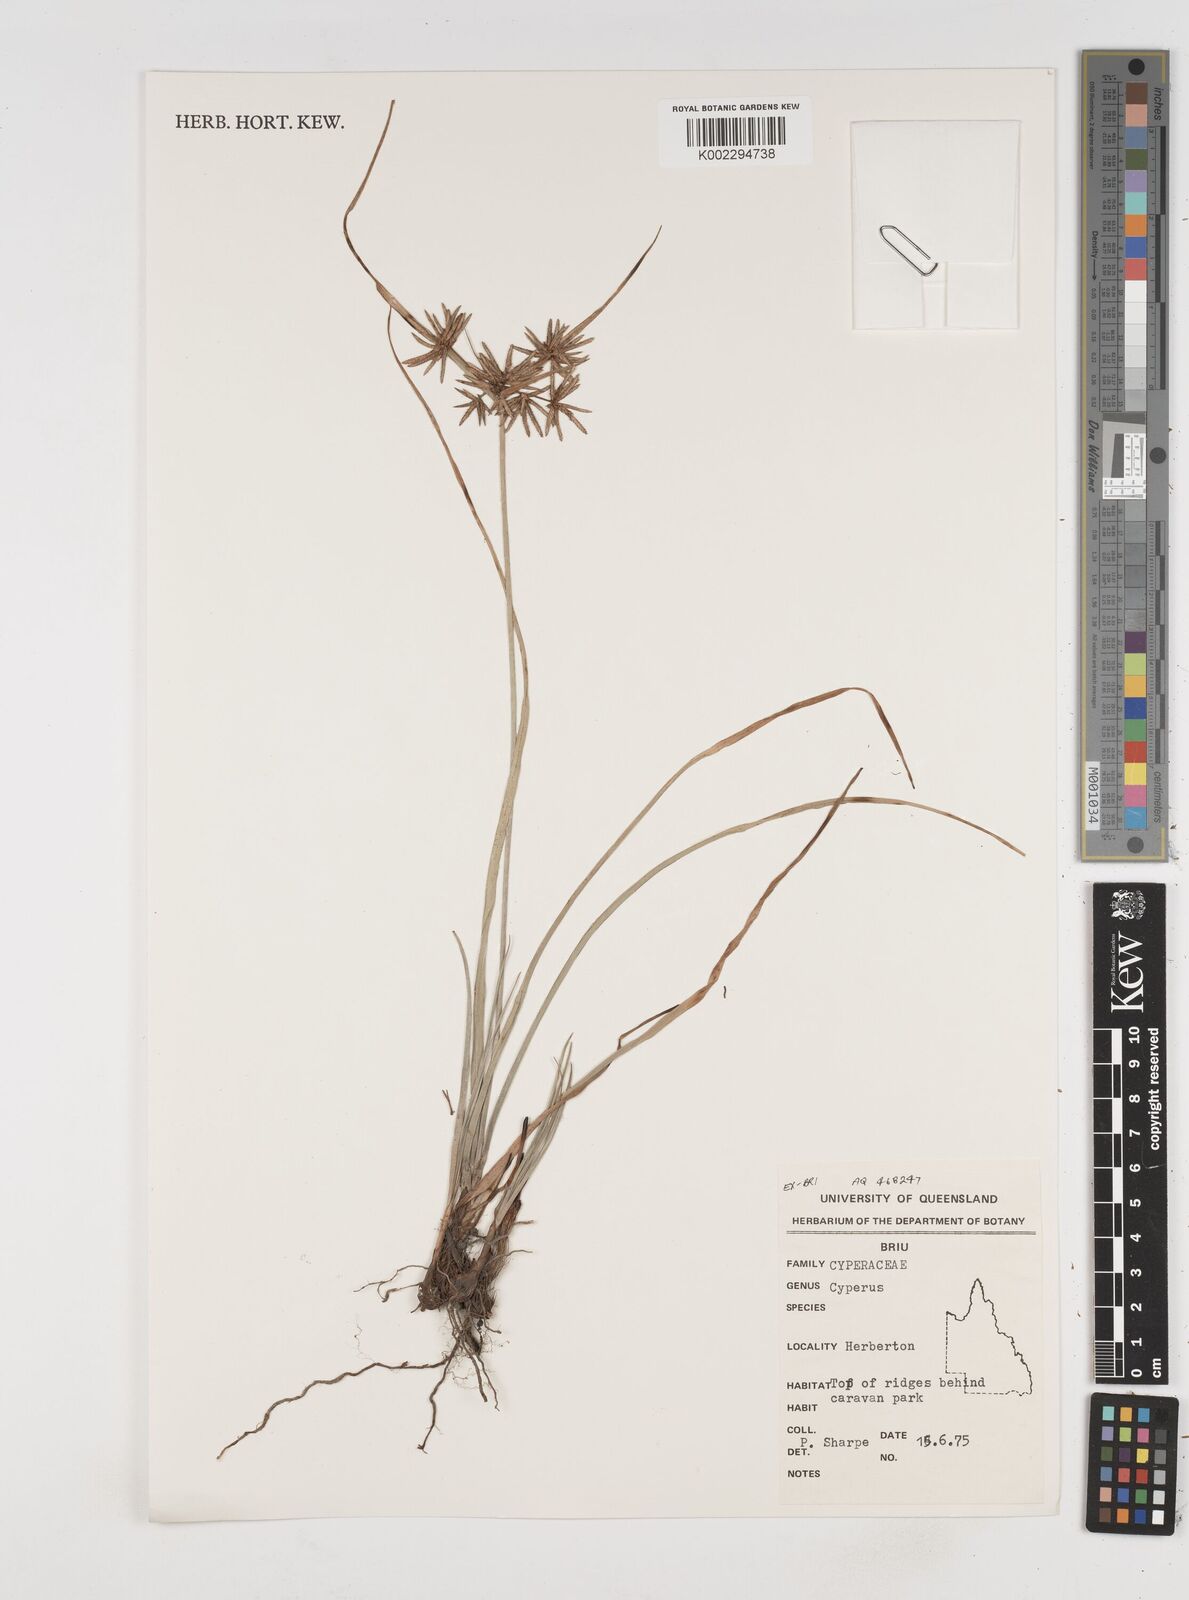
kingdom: Plantae
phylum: Tracheophyta
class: Liliopsida
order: Poales
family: Cyperaceae
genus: Cyperus
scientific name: Cyperus
